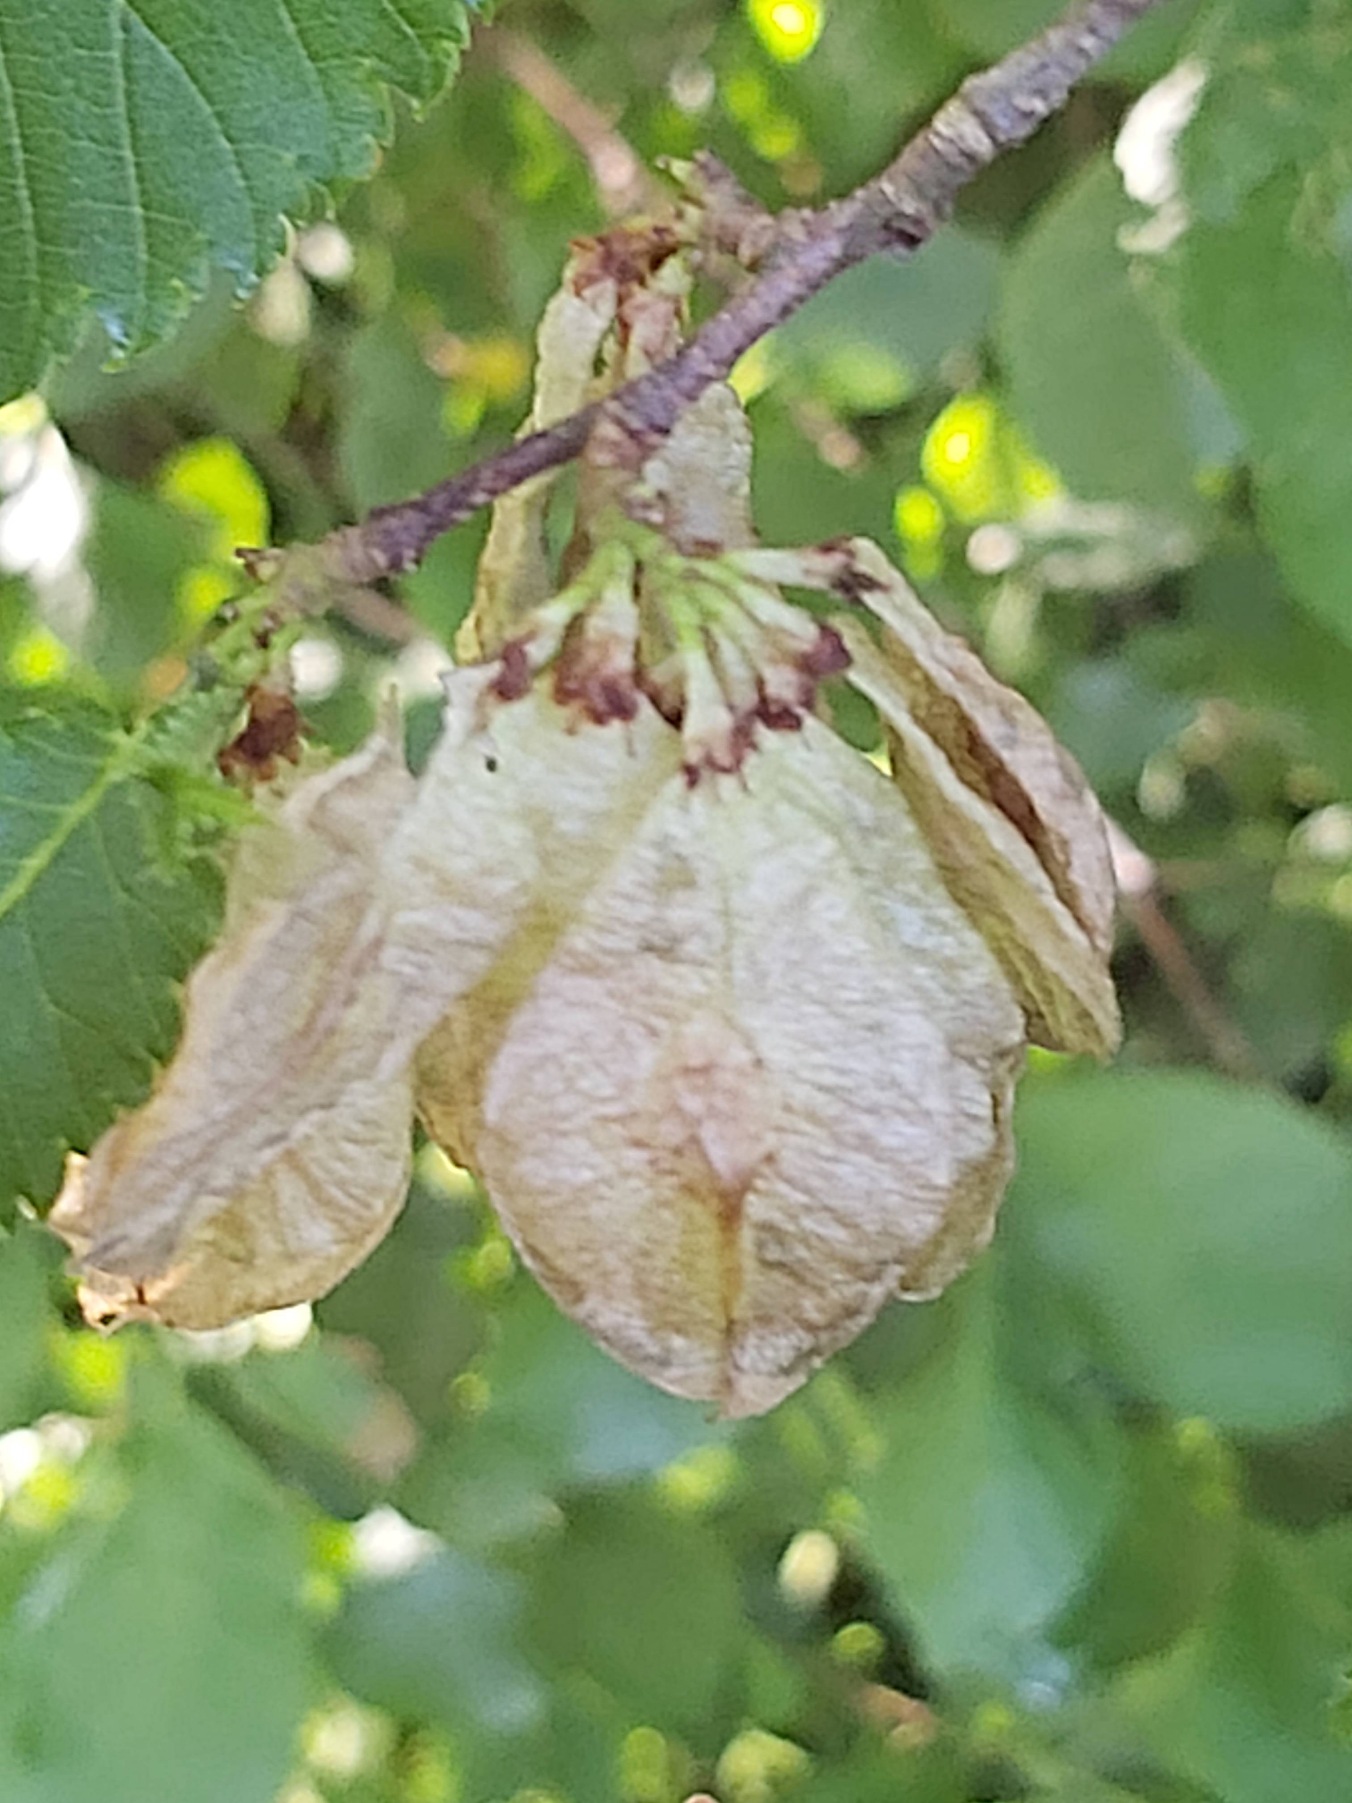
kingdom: Plantae
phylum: Tracheophyta
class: Magnoliopsida
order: Rosales
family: Ulmaceae
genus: Ulmus
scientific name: Ulmus glabra
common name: Skov-elm/storbladet elm
